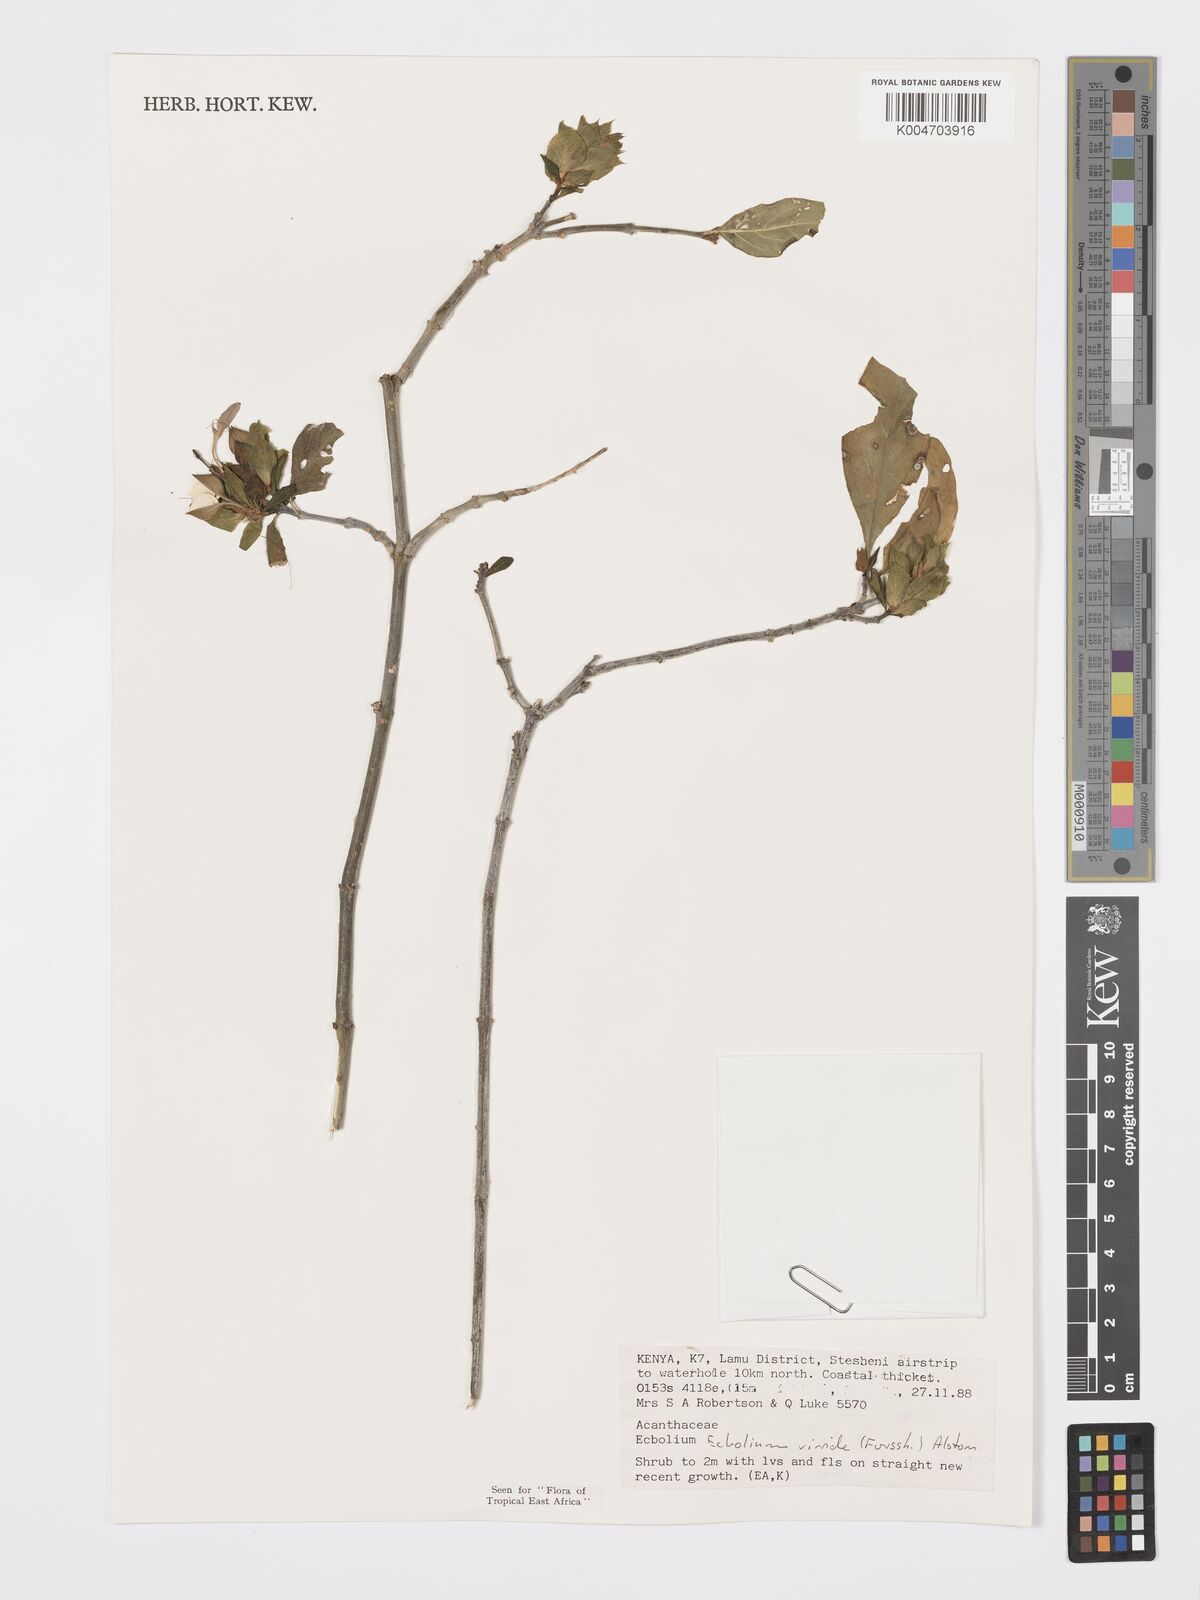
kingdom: Plantae
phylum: Tracheophyta
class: Magnoliopsida
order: Lamiales
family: Acanthaceae
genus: Ecbolium
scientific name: Ecbolium viride
